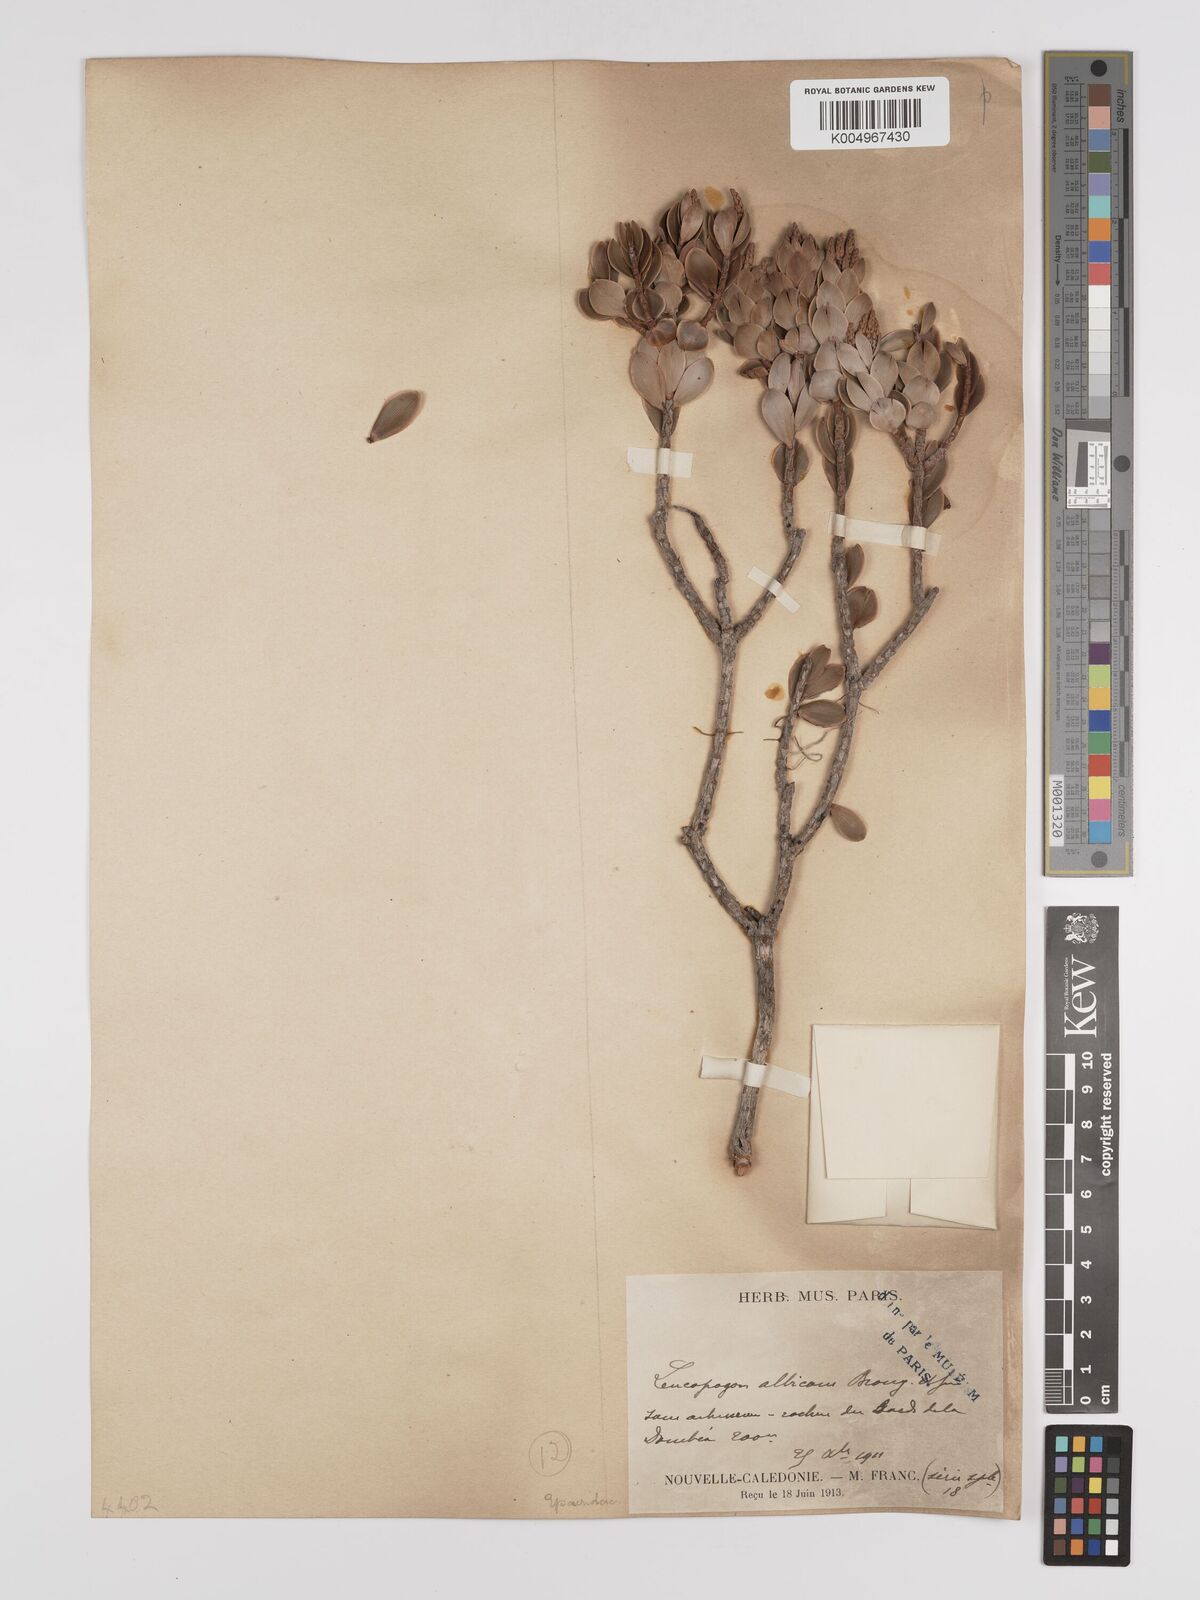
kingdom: Plantae
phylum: Tracheophyta
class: Magnoliopsida
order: Ericales
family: Ericaceae
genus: Cyathopsis
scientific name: Cyathopsis albicans
